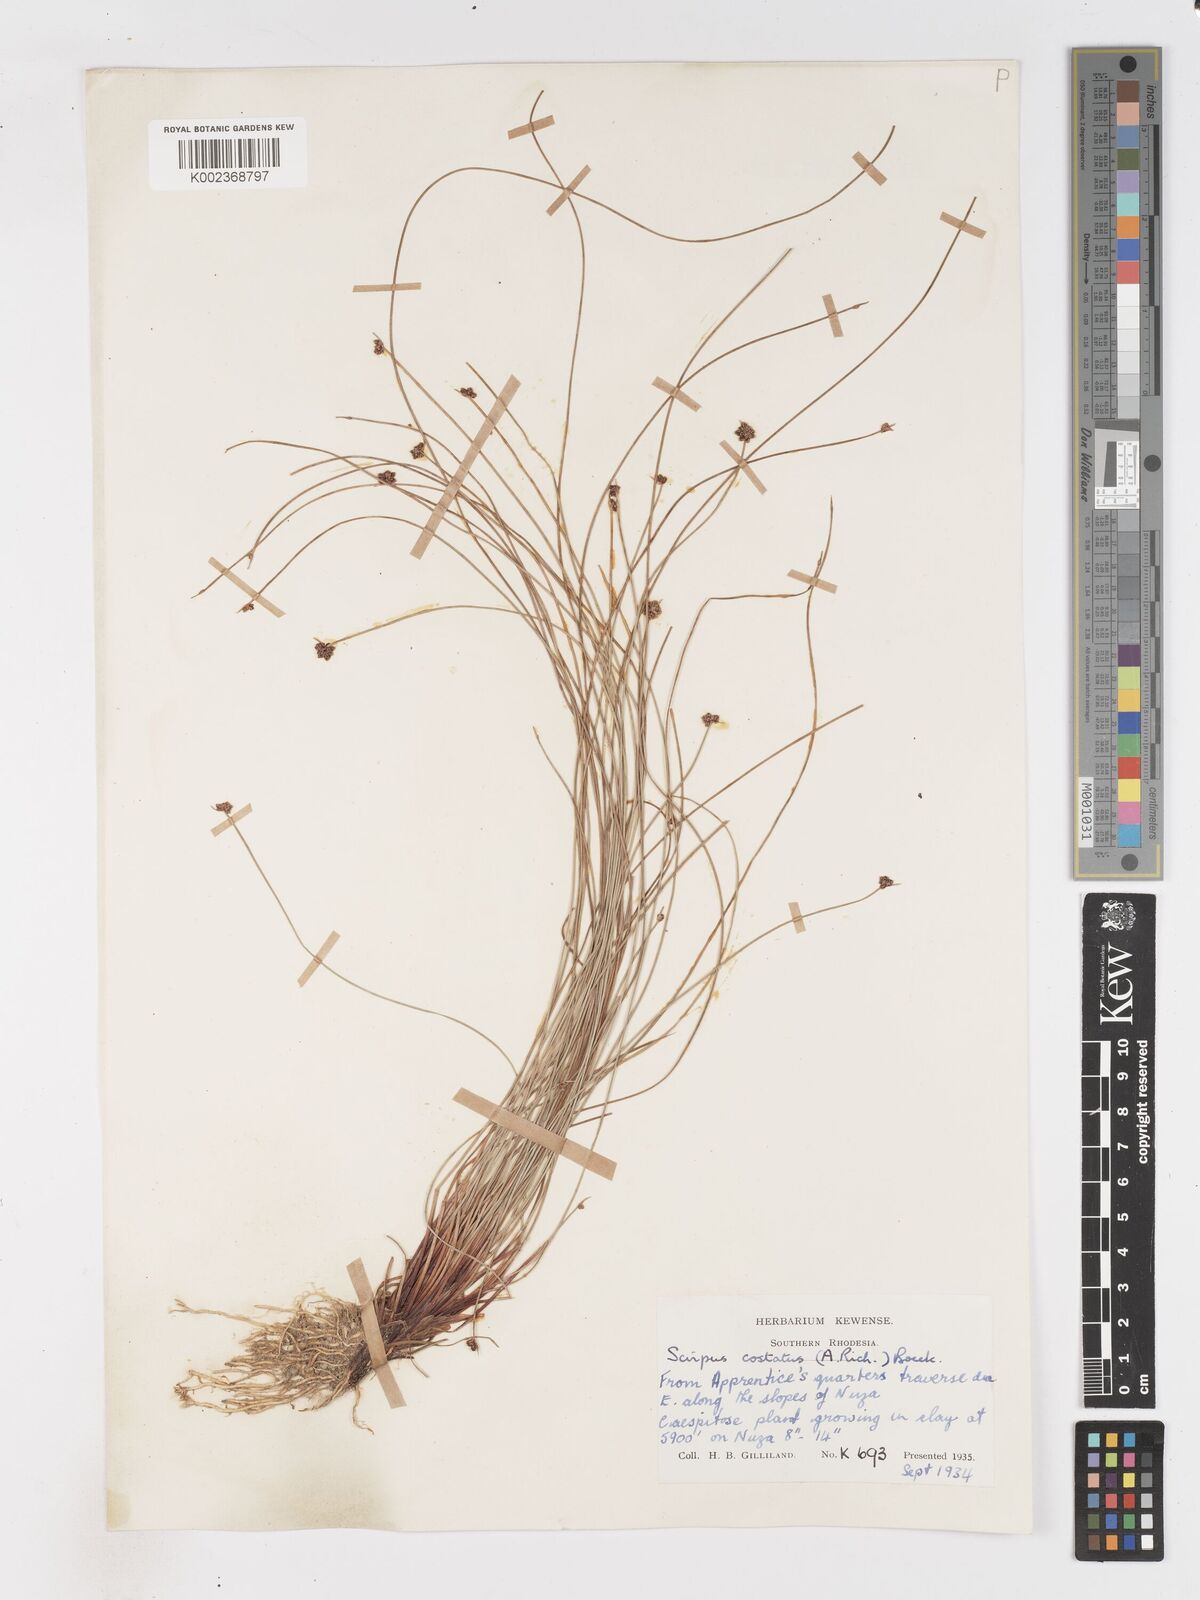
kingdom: Plantae
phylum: Tracheophyta
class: Liliopsida
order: Poales
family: Cyperaceae
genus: Isolepis
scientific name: Isolepis costata
